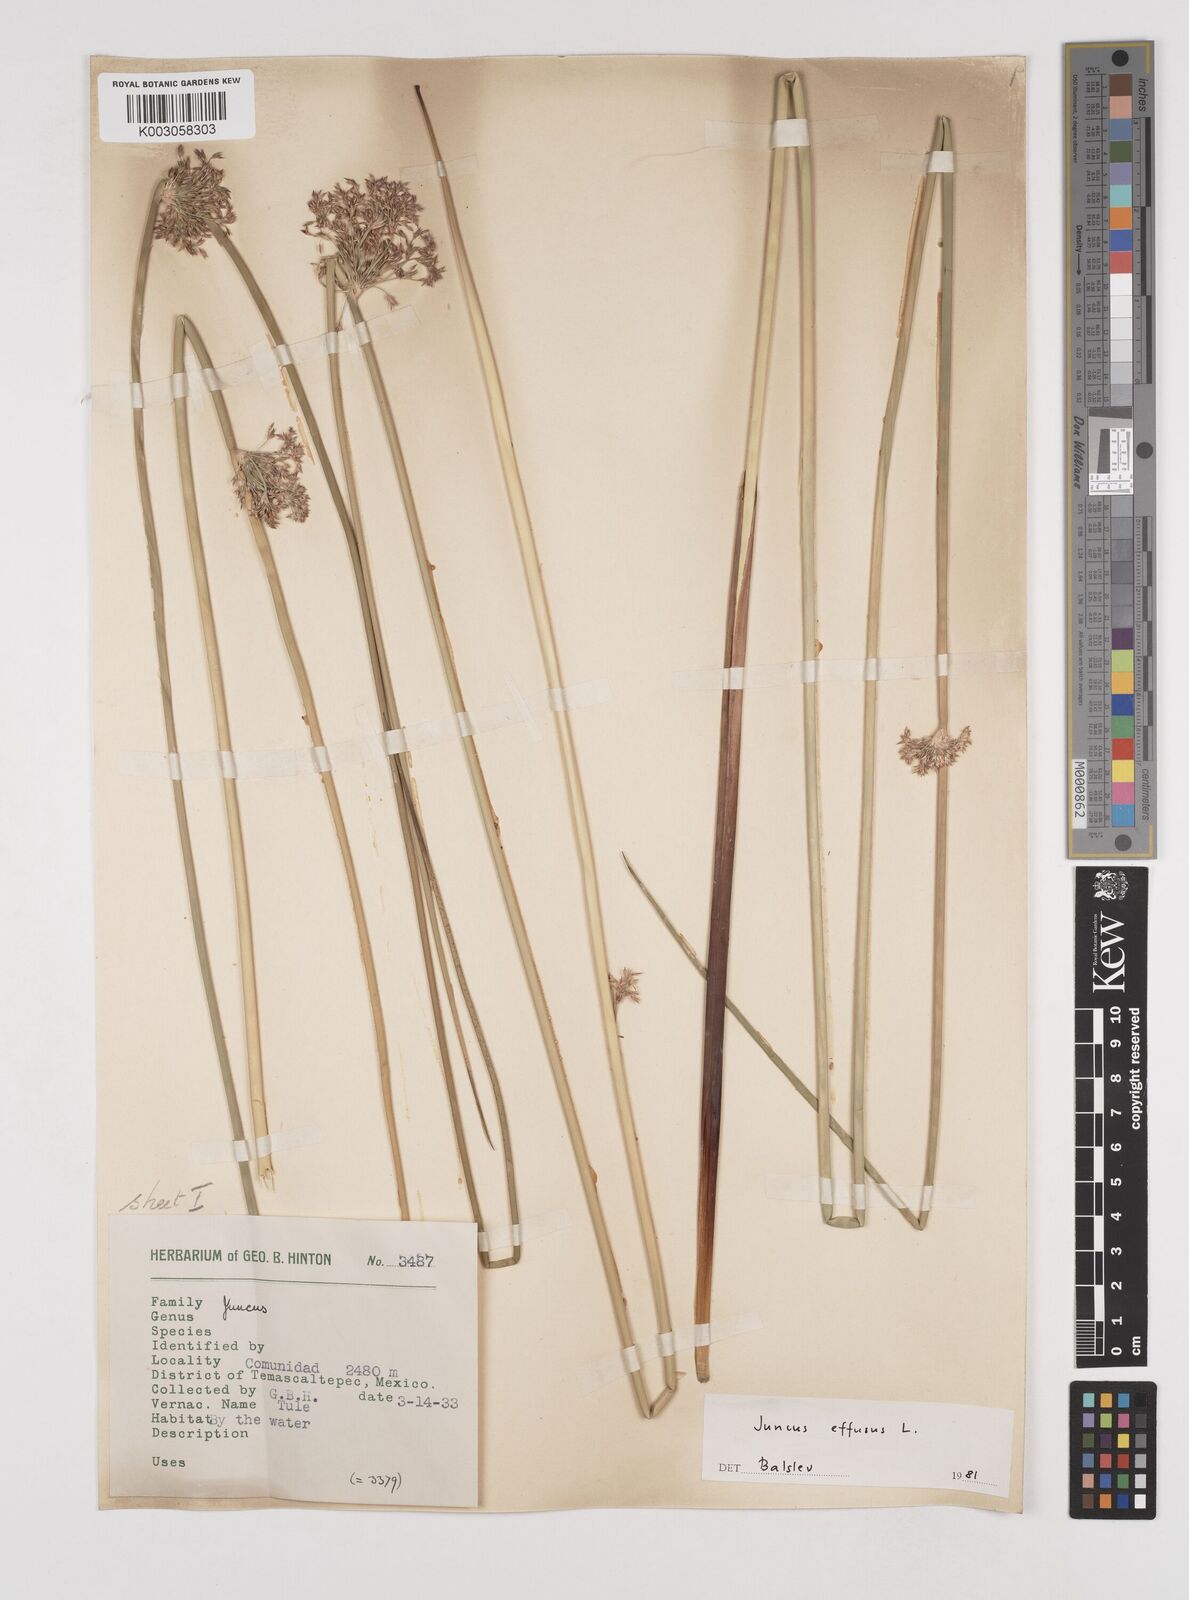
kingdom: Plantae
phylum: Tracheophyta
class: Liliopsida
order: Poales
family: Juncaceae
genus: Juncus
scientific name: Juncus effusus
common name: Soft rush
